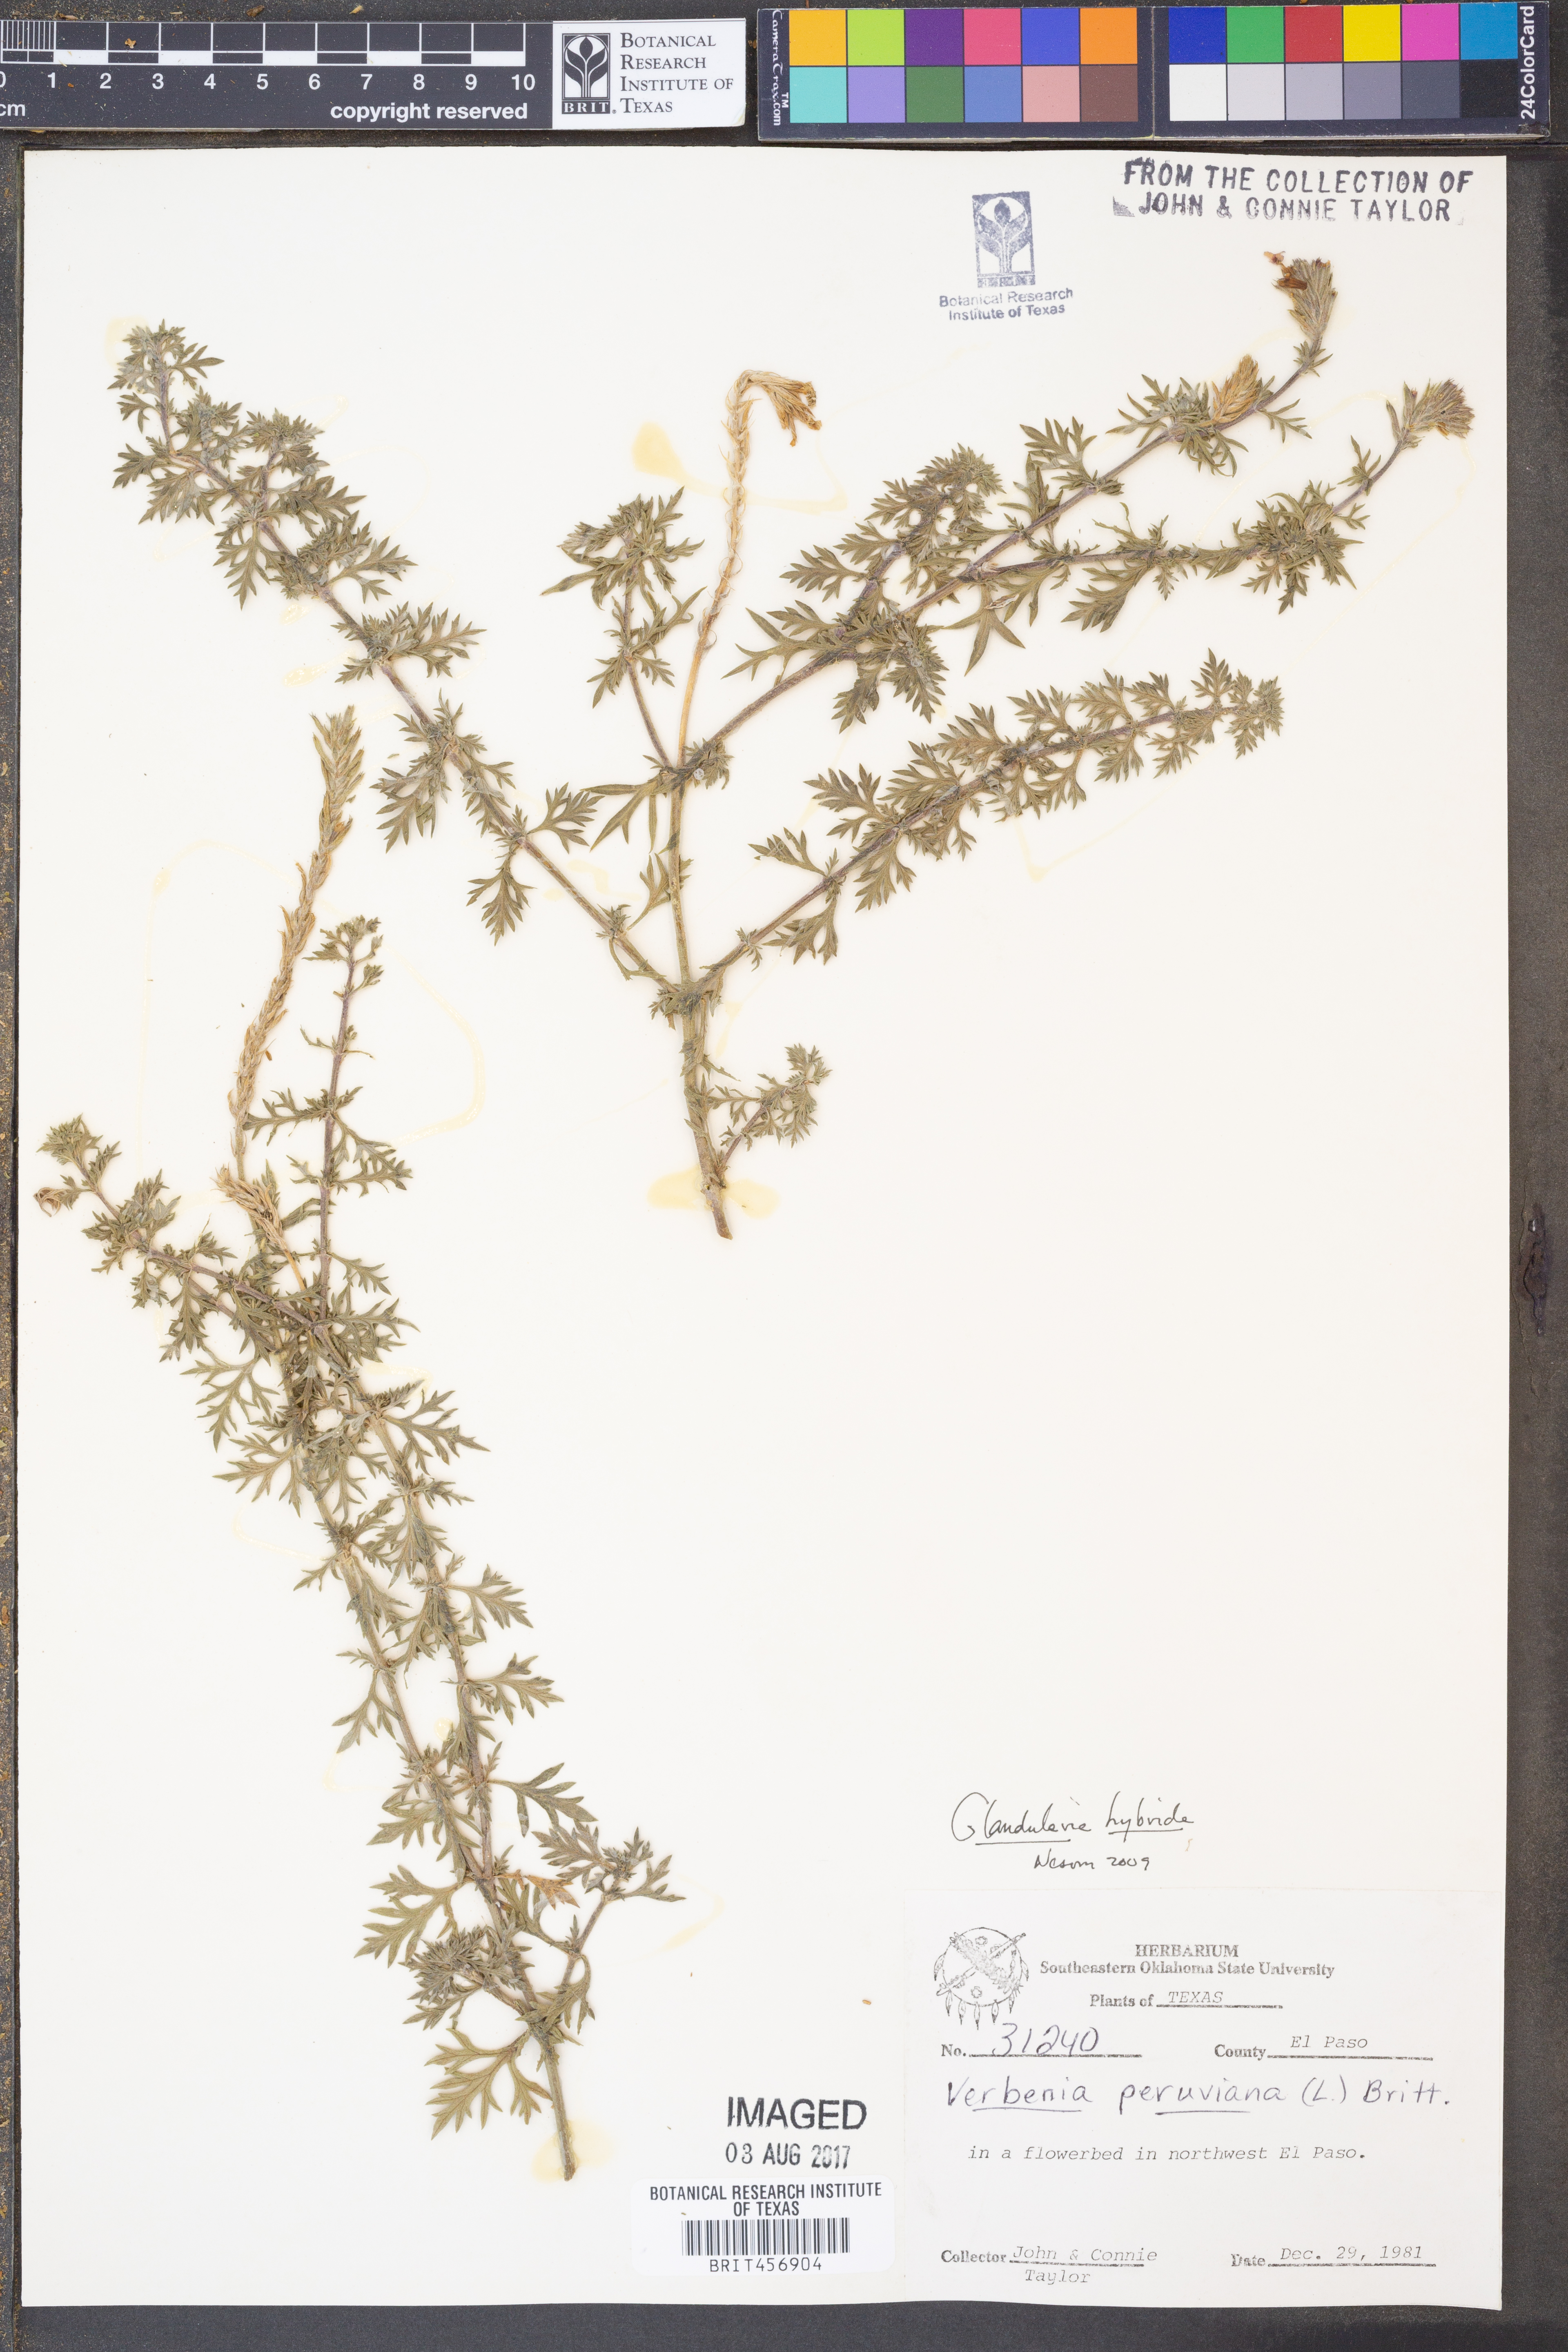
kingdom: Plantae
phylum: Tracheophyta
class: Magnoliopsida
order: Lamiales
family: Verbenaceae
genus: Verbena
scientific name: Verbena hybrida
